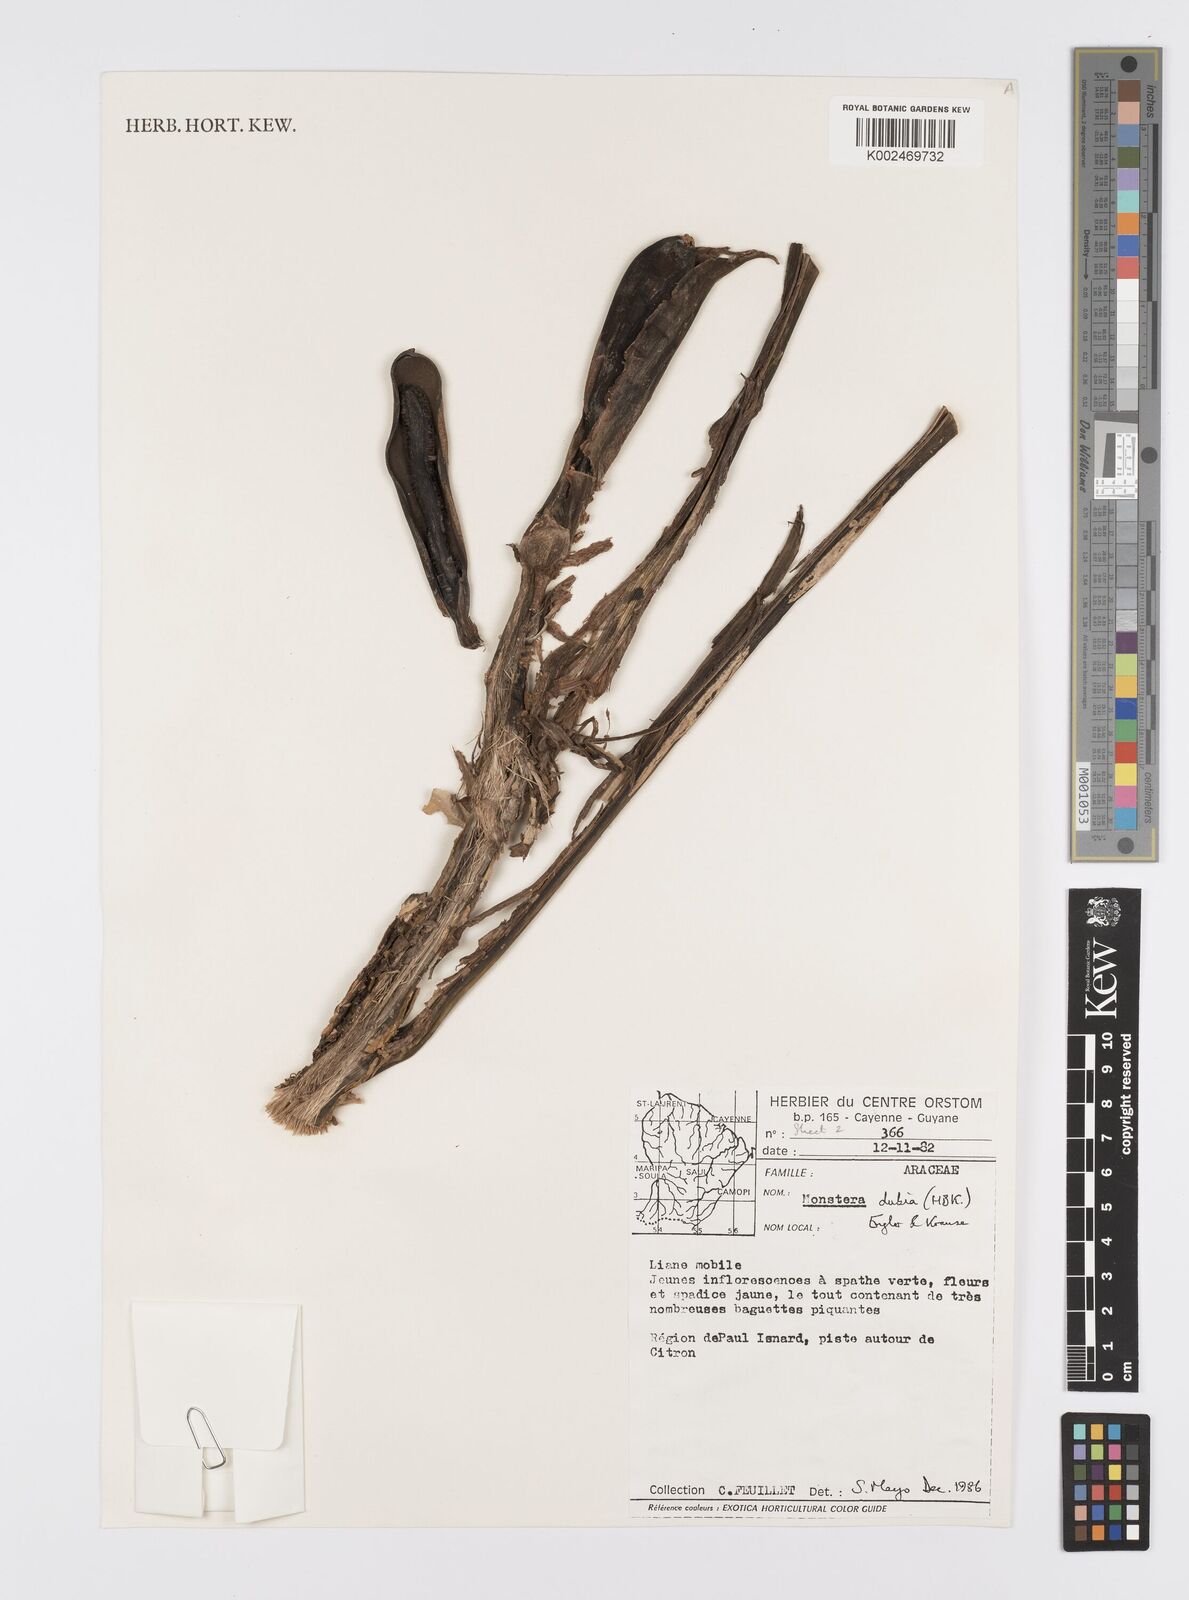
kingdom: Plantae
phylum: Tracheophyta
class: Liliopsida
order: Alismatales
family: Araceae
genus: Monstera
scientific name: Monstera dubia
